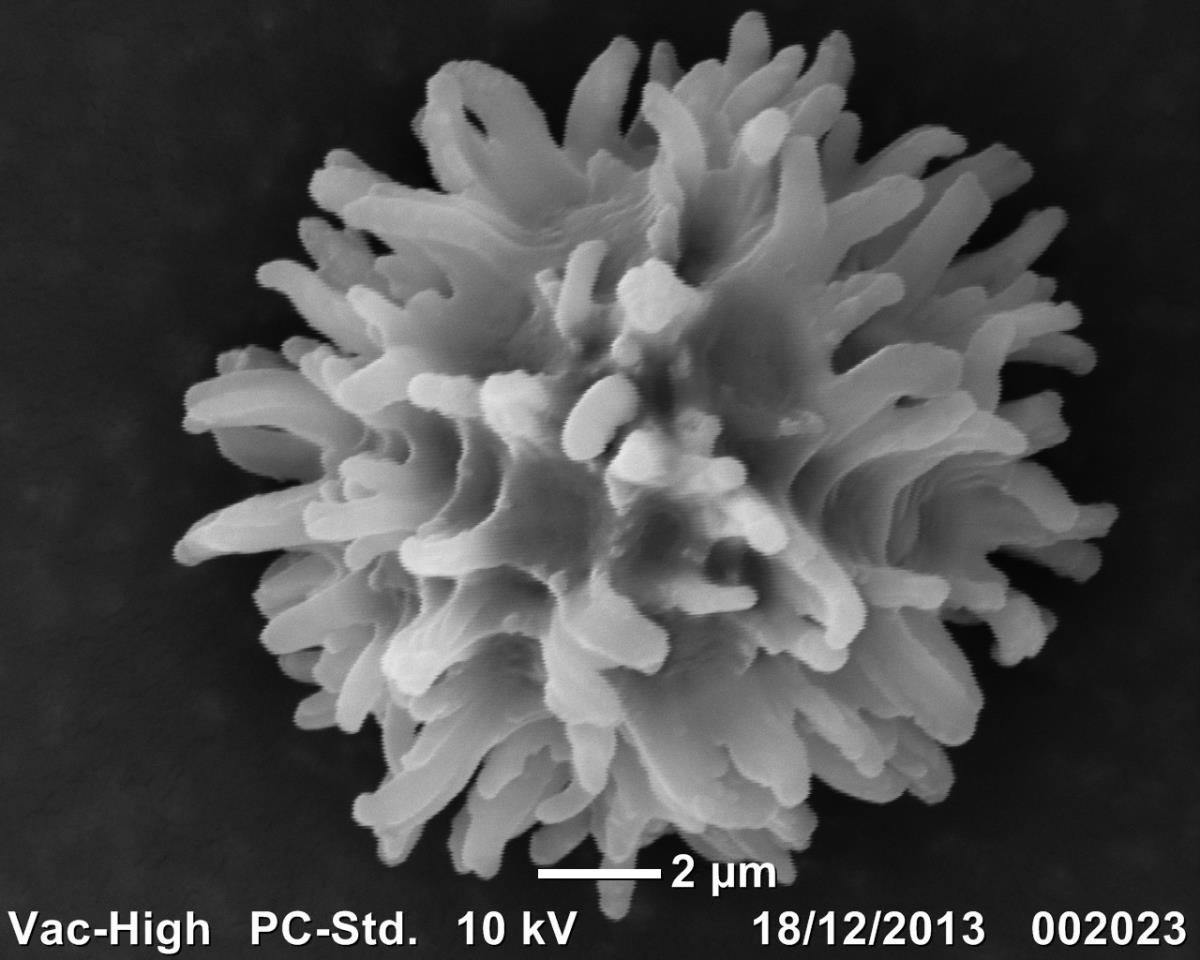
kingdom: Fungi
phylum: Basidiomycota
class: Agaricomycetes
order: Russulales
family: Russulaceae
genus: Russula
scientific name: Russula osphranticarpa
